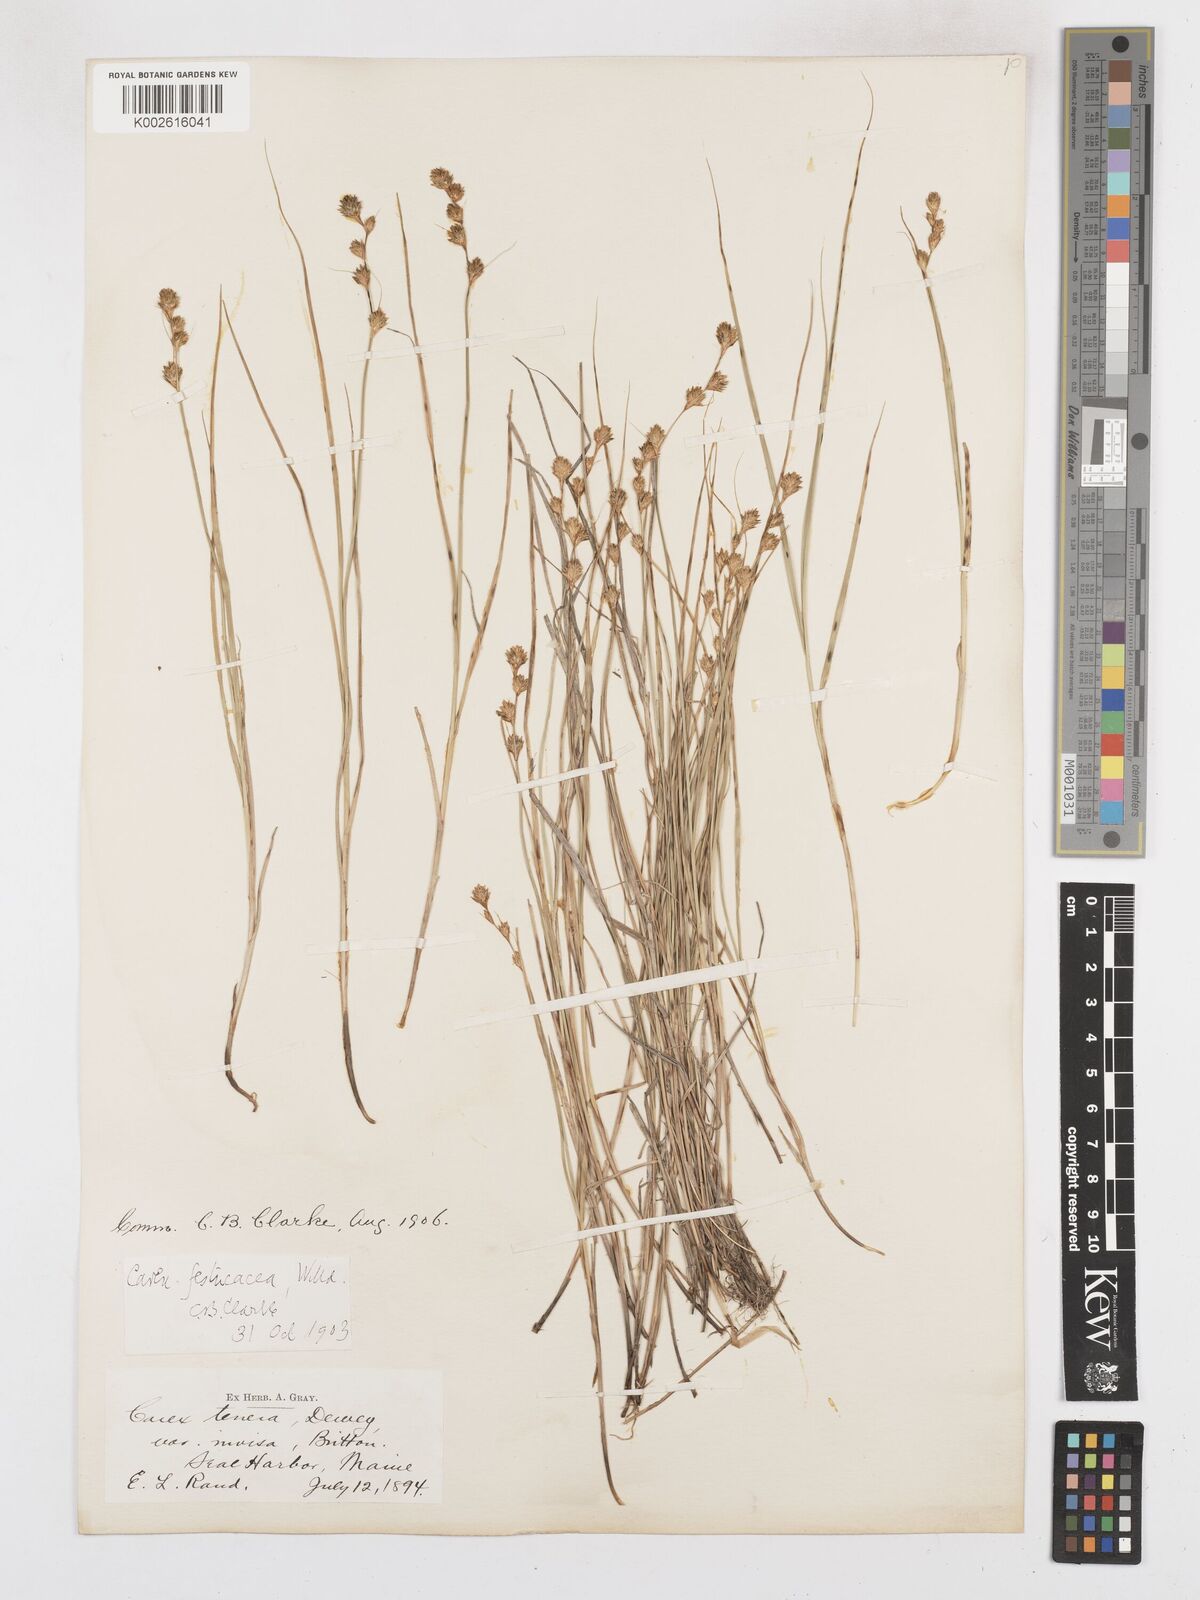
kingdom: Plantae
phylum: Tracheophyta
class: Liliopsida
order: Poales
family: Cyperaceae
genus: Carex
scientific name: Carex festucacea
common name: Fescue oval sedge
